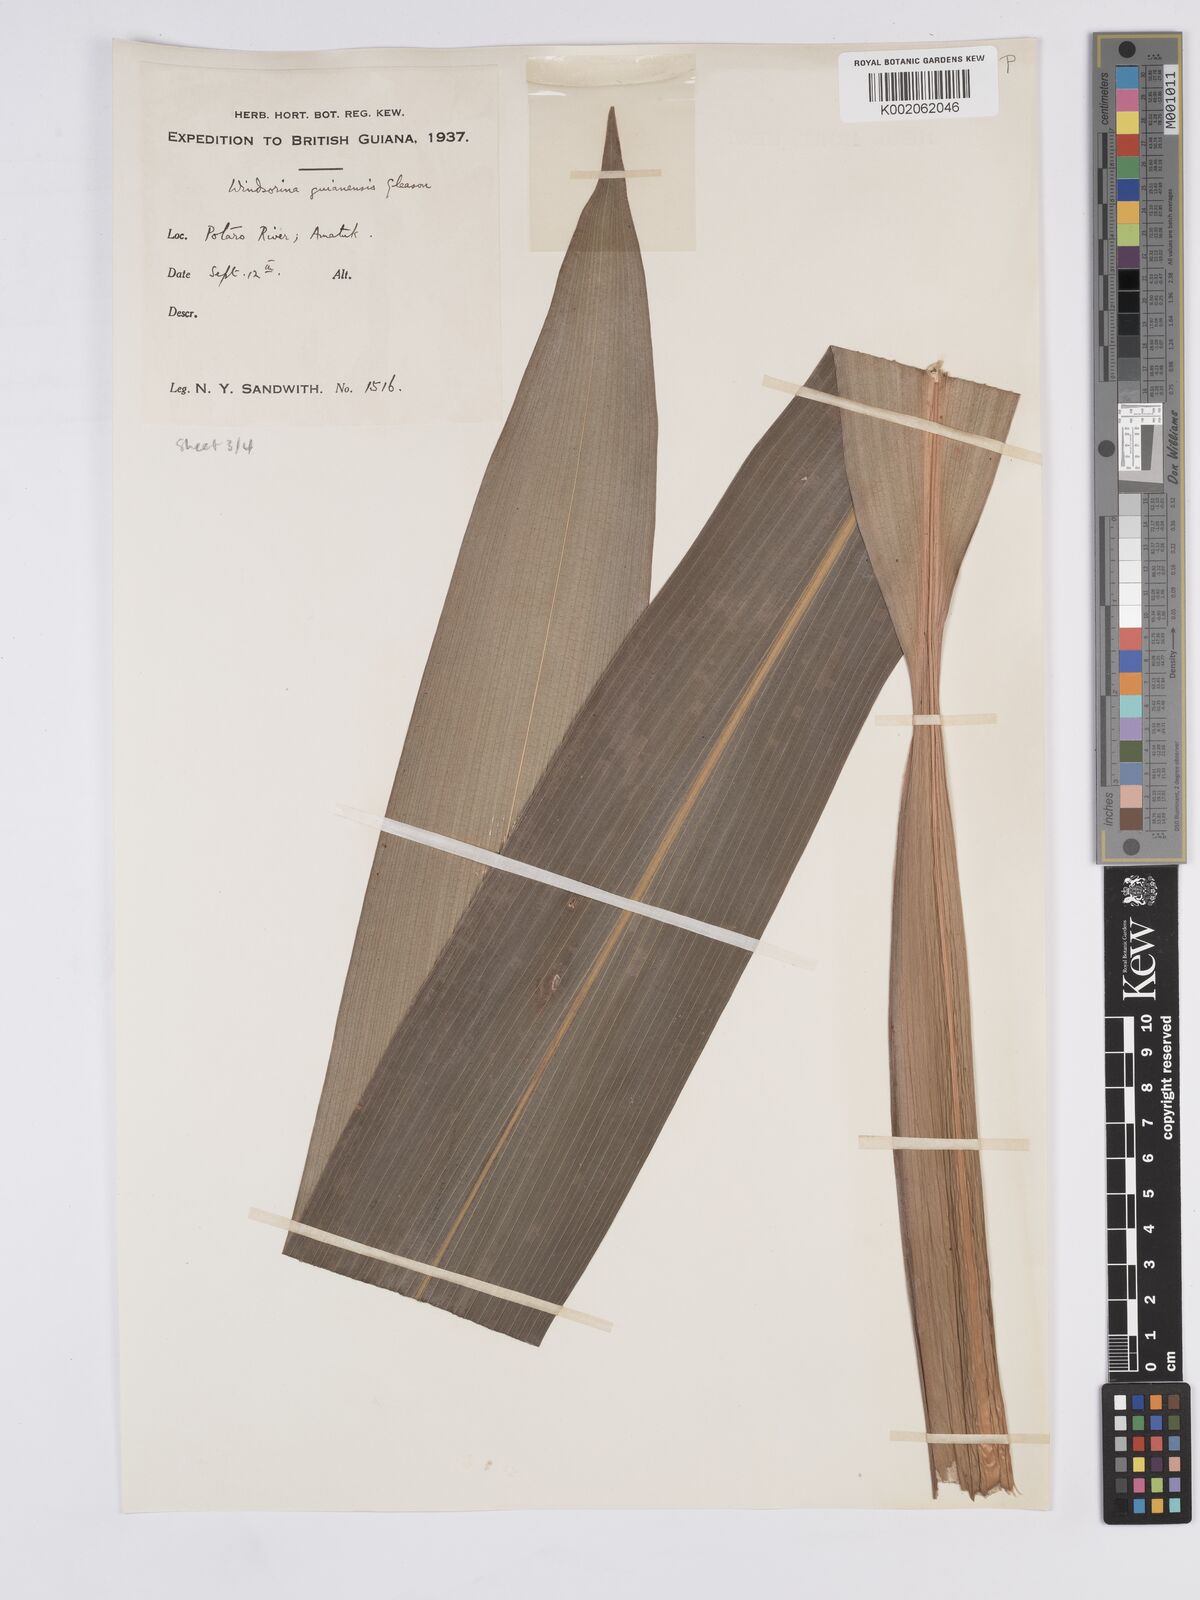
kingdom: Plantae
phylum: Tracheophyta
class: Liliopsida
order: Poales
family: Rapateaceae
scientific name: Rapateaceae
